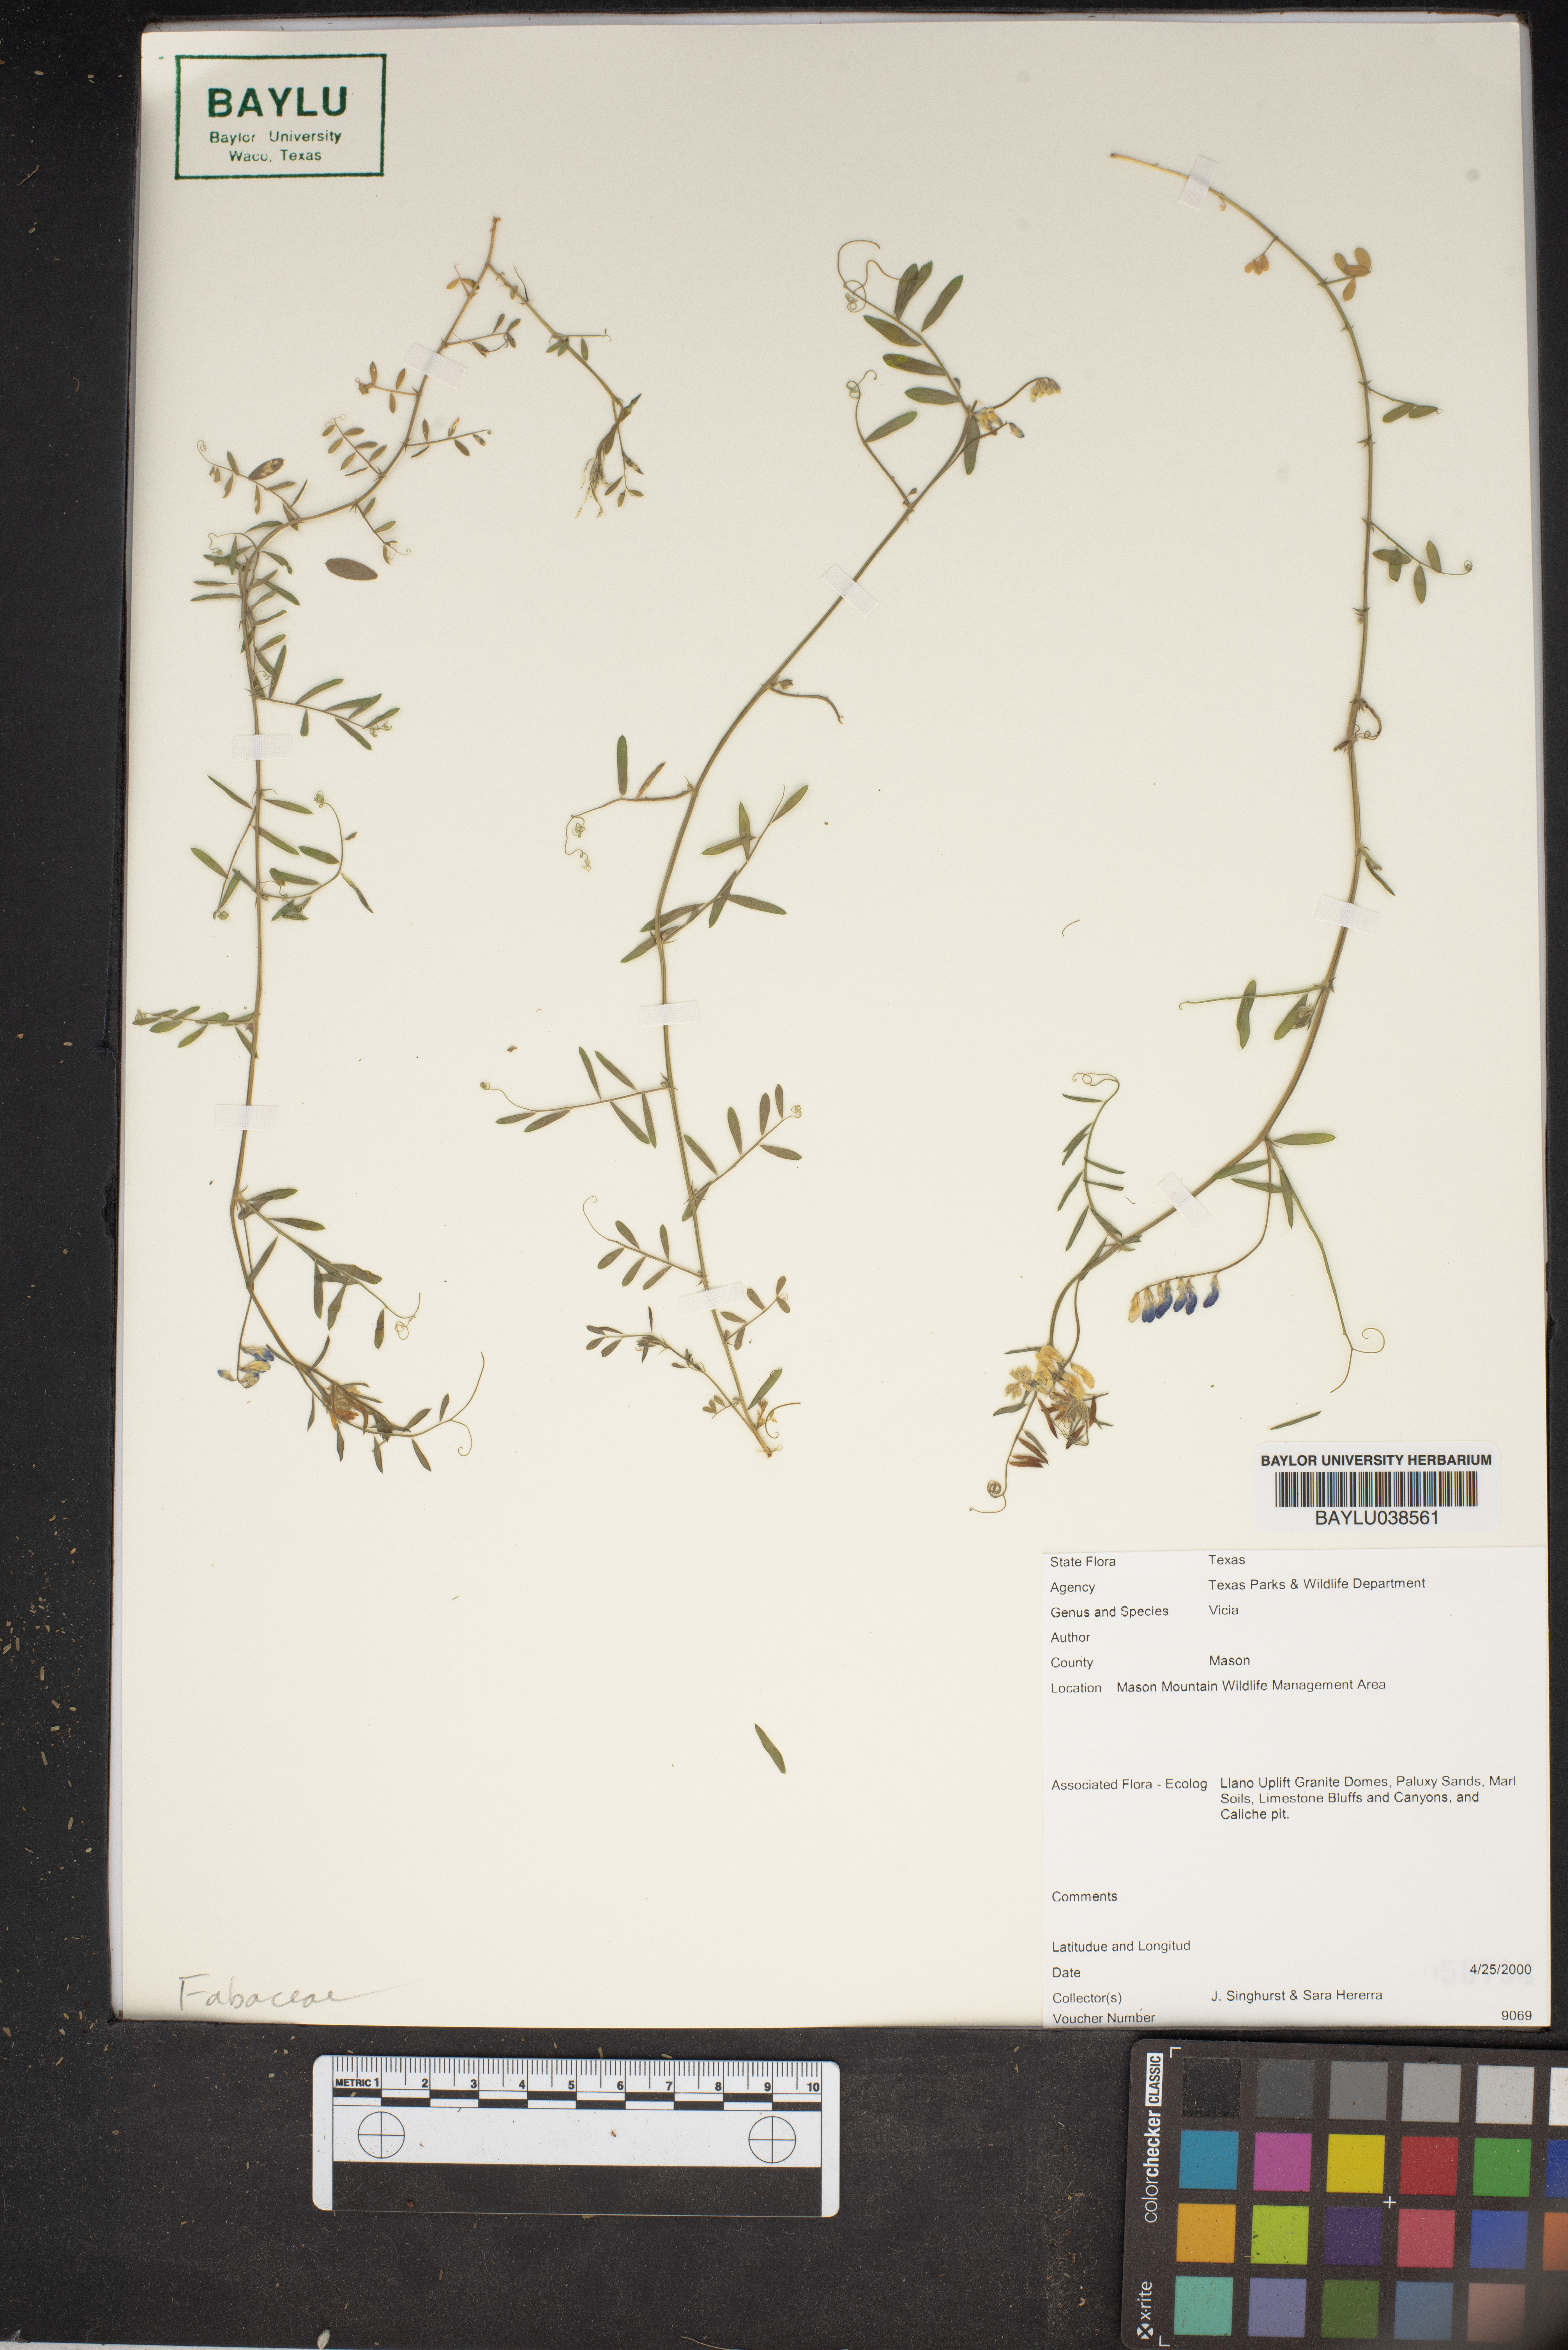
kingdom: Plantae
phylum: Tracheophyta
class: Magnoliopsida
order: Fabales
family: Fabaceae
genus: Vicia
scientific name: Vicia
